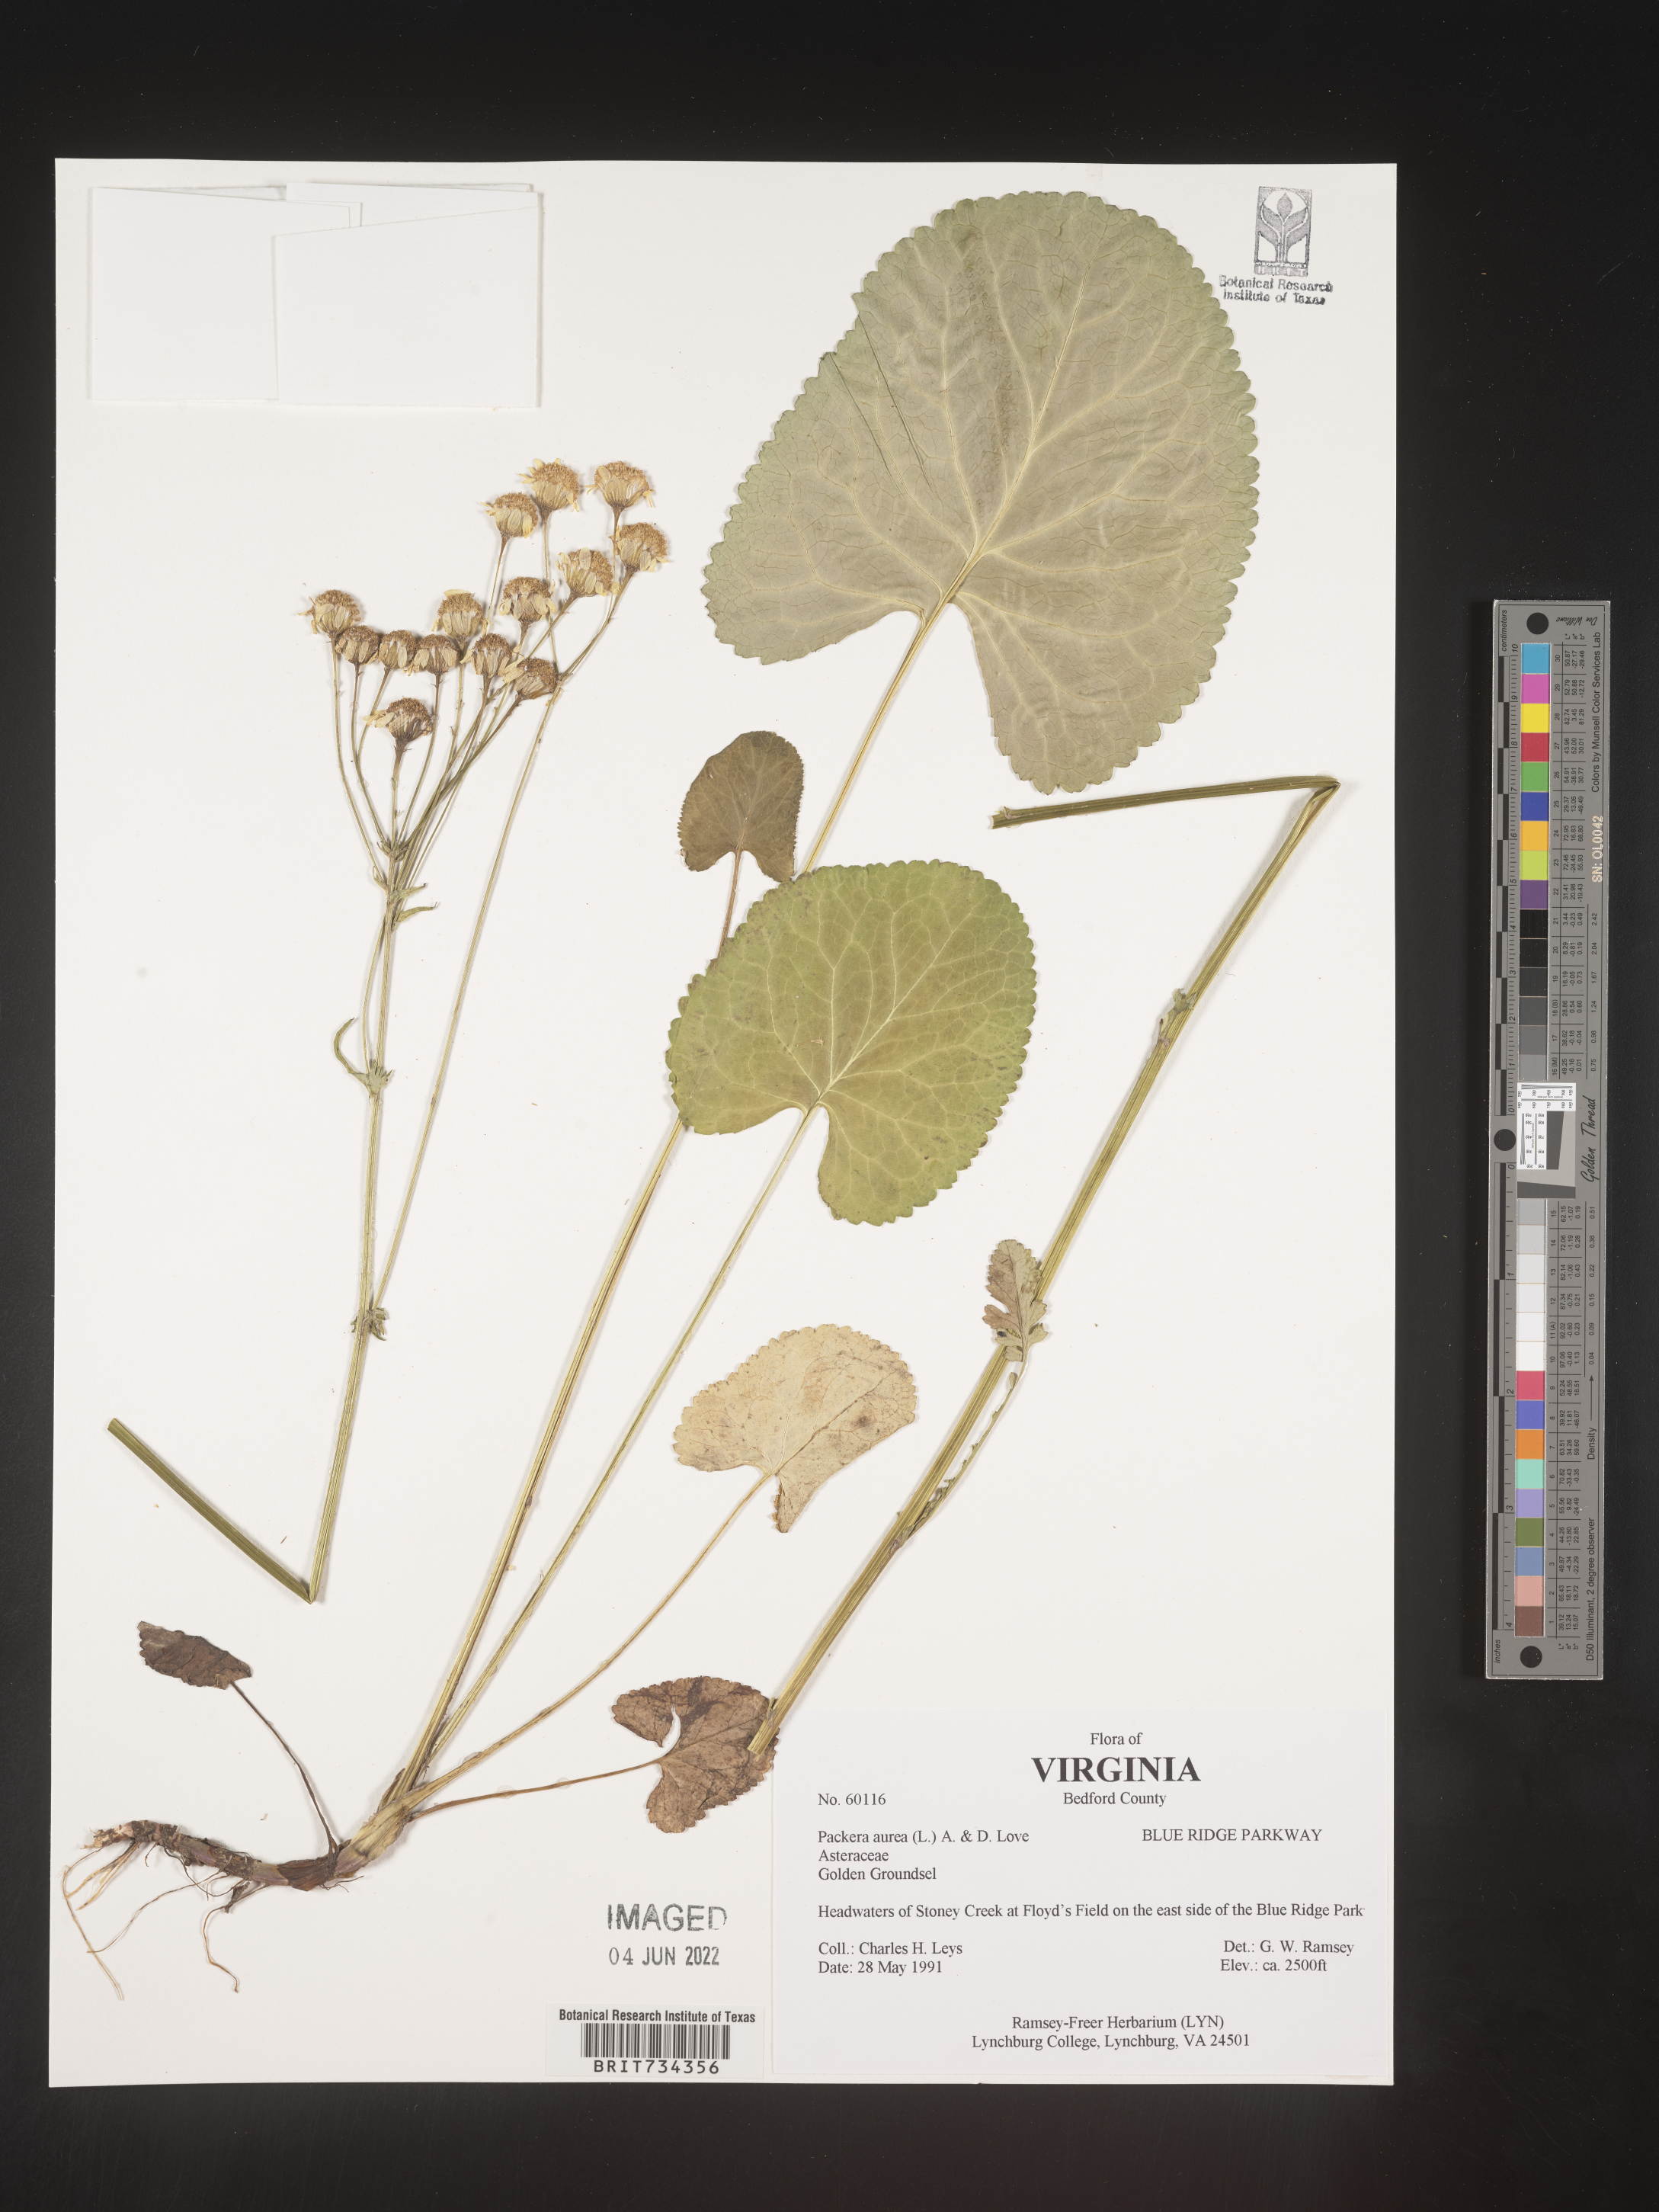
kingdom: Plantae
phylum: Tracheophyta
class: Magnoliopsida
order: Asterales
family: Asteraceae
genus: Packera
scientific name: Packera aurea
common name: Golden groundsel
